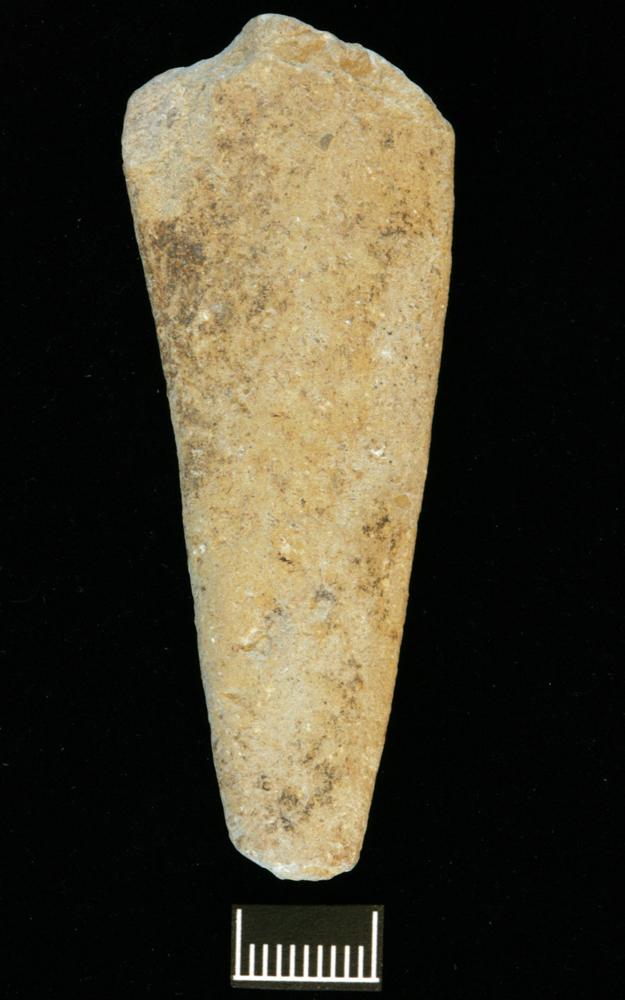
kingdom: Animalia
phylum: Annelida
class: Polychaeta
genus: Hyolithes
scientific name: Hyolithes
